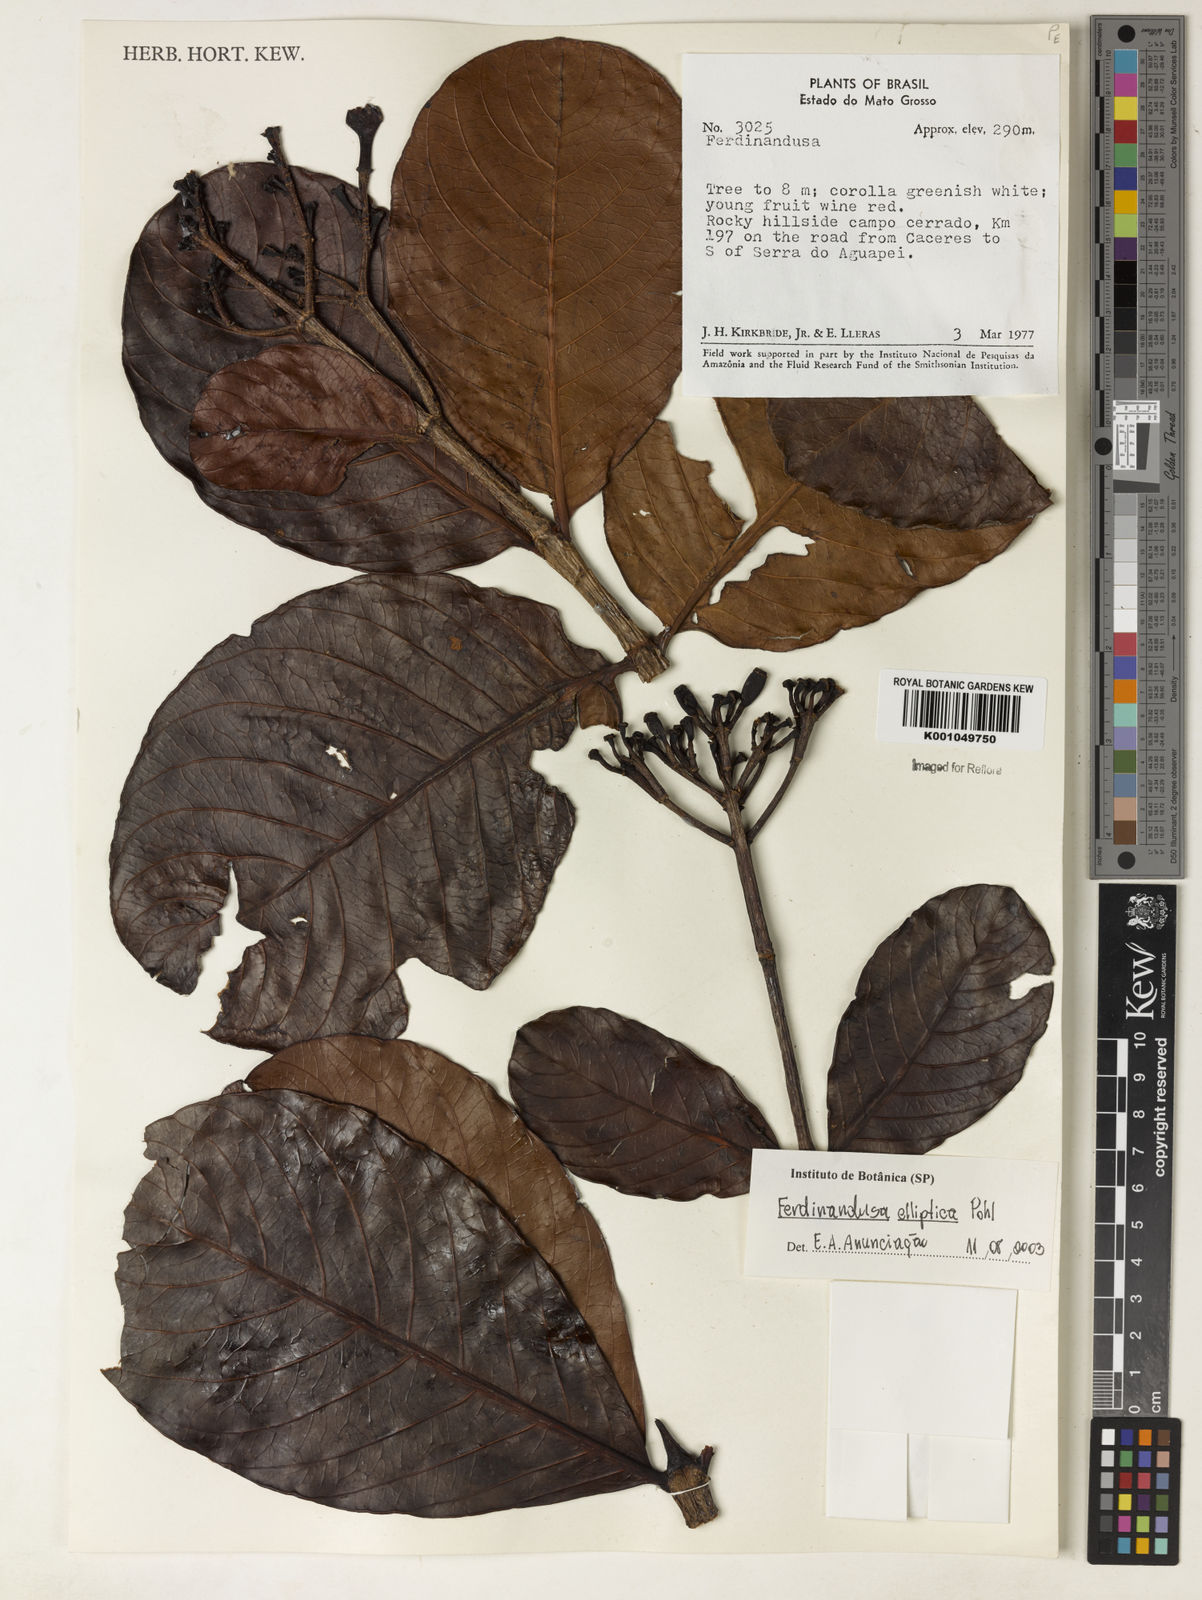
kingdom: Plantae
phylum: Tracheophyta
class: Magnoliopsida
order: Gentianales
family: Rubiaceae
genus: Ferdinandusa
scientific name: Ferdinandusa elliptica
